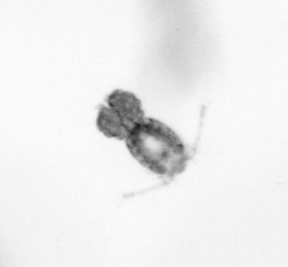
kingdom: Animalia
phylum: Arthropoda
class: Copepoda
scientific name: Copepoda
